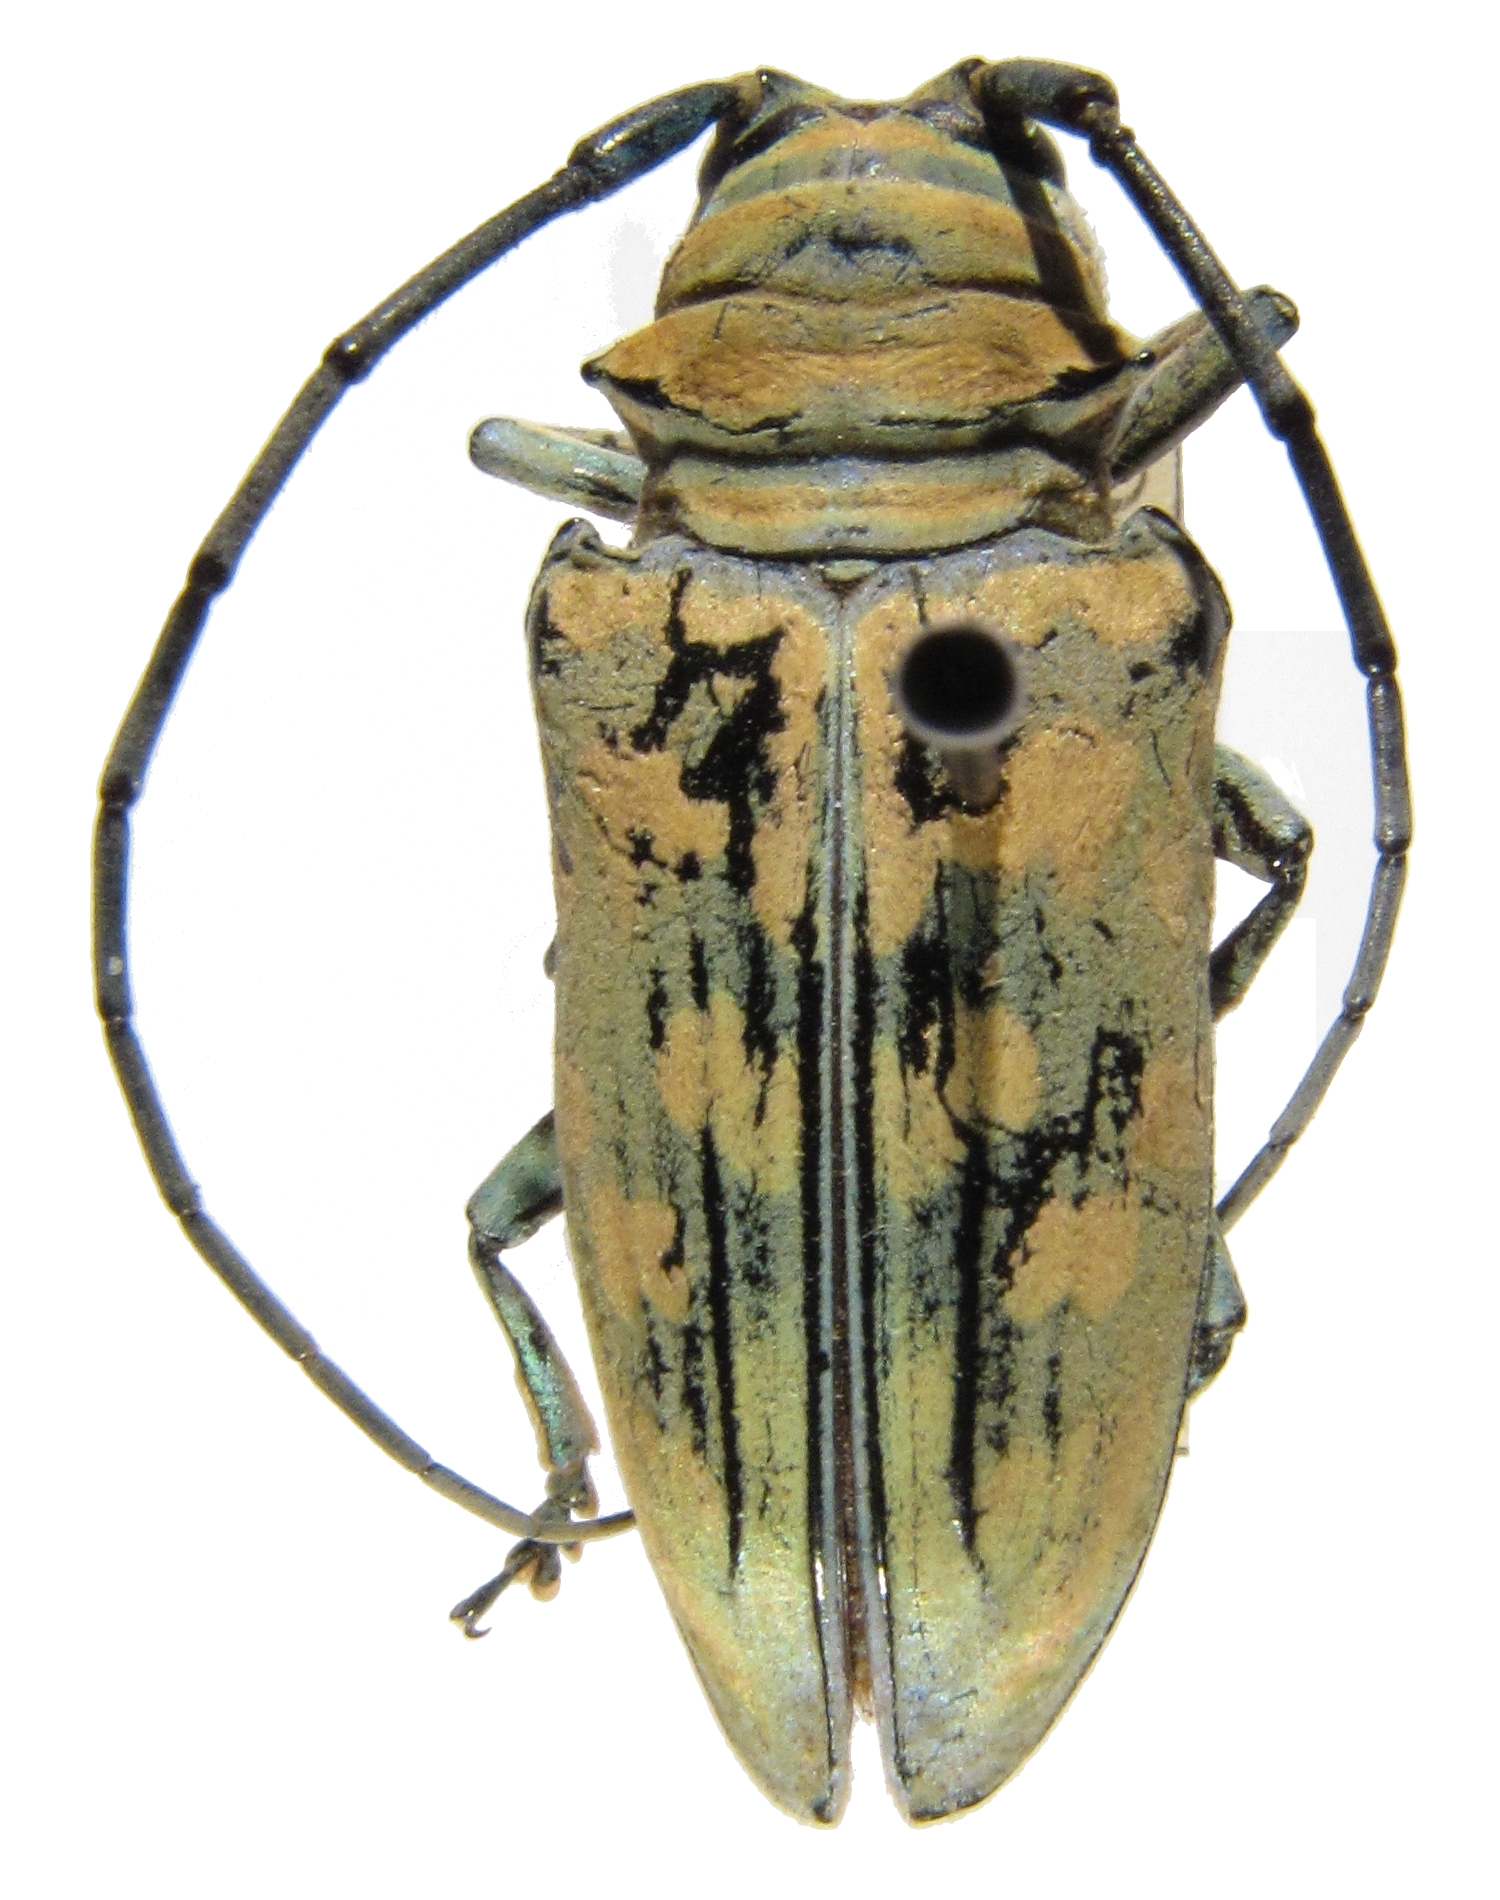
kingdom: Animalia
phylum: Arthropoda
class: Insecta
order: Coleoptera
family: Cerambycidae
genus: Sternotomis
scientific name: Sternotomis flavomaculata
